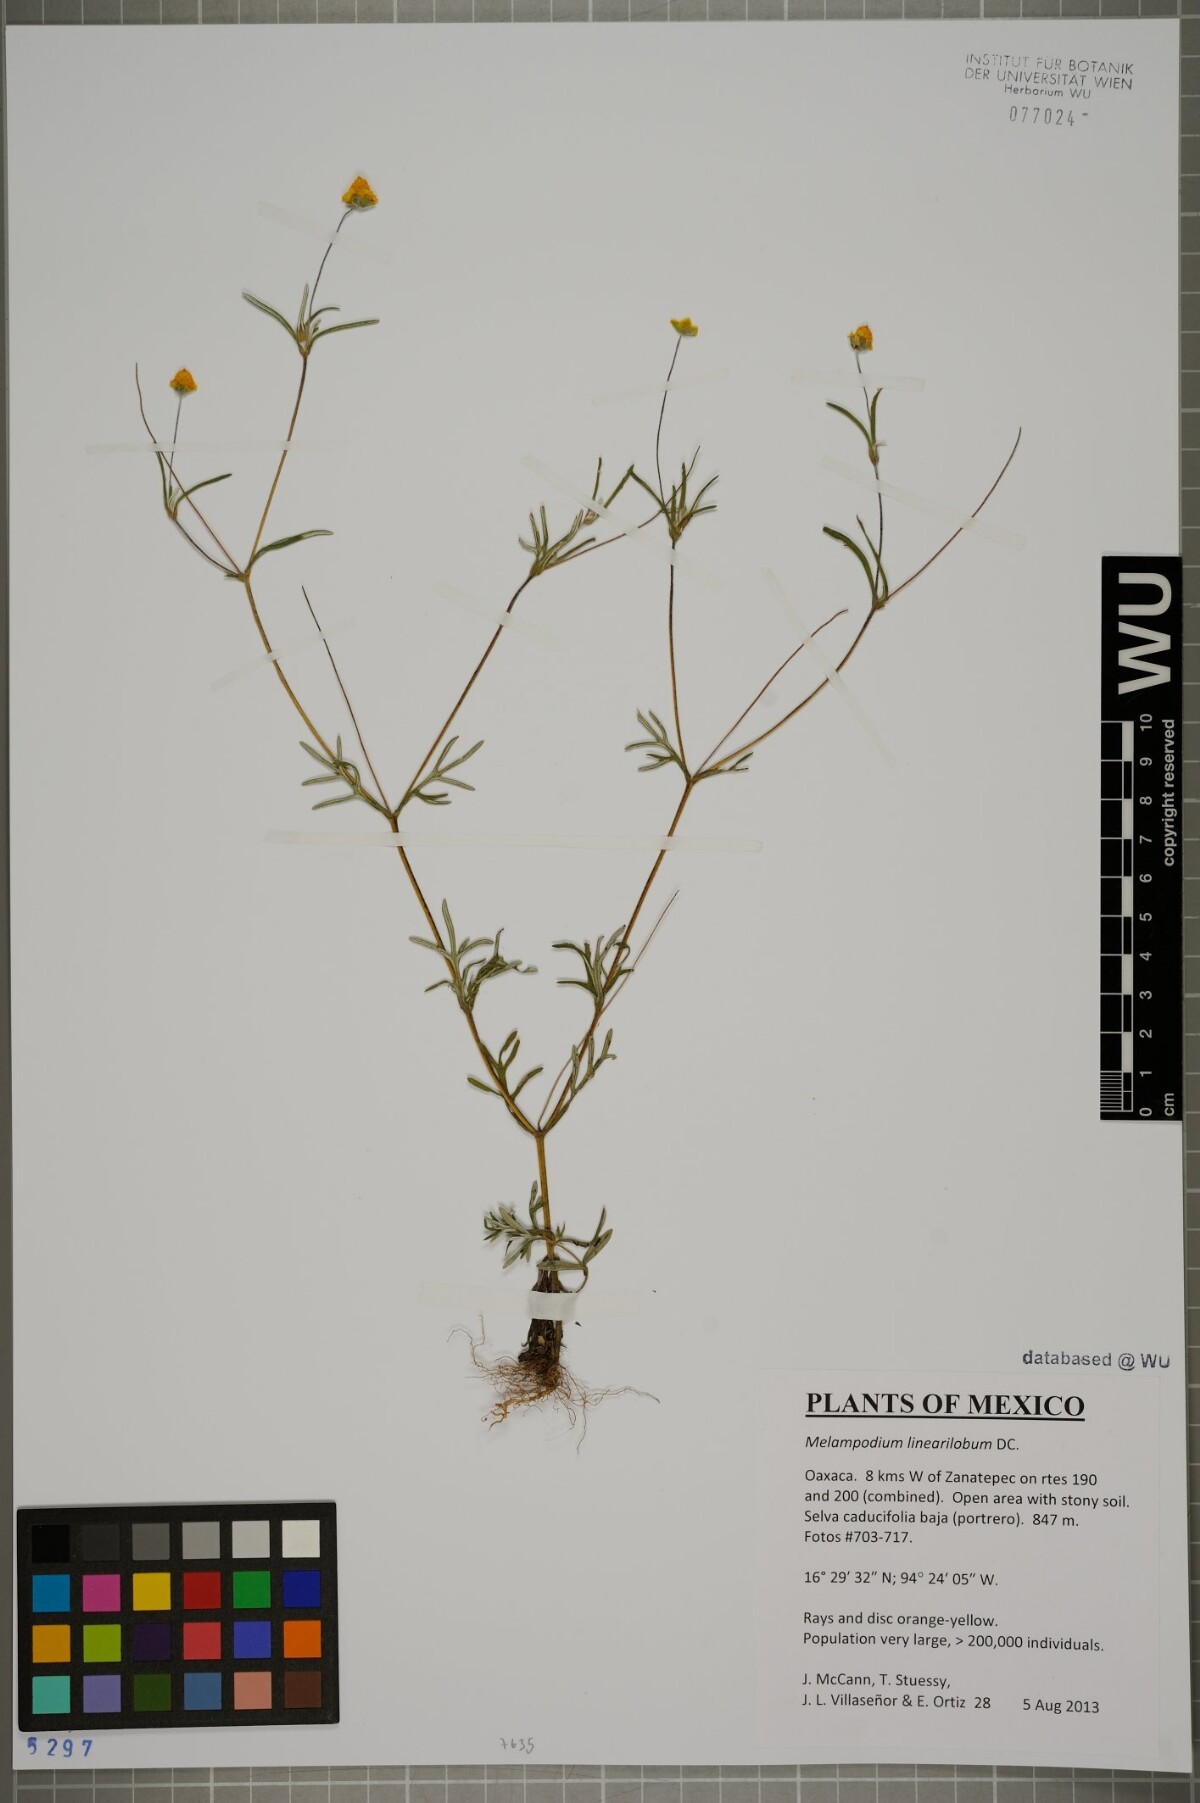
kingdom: Plantae
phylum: Tracheophyta
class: Magnoliopsida
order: Asterales
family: Asteraceae
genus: Melampodium
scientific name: Melampodium linearilobum
